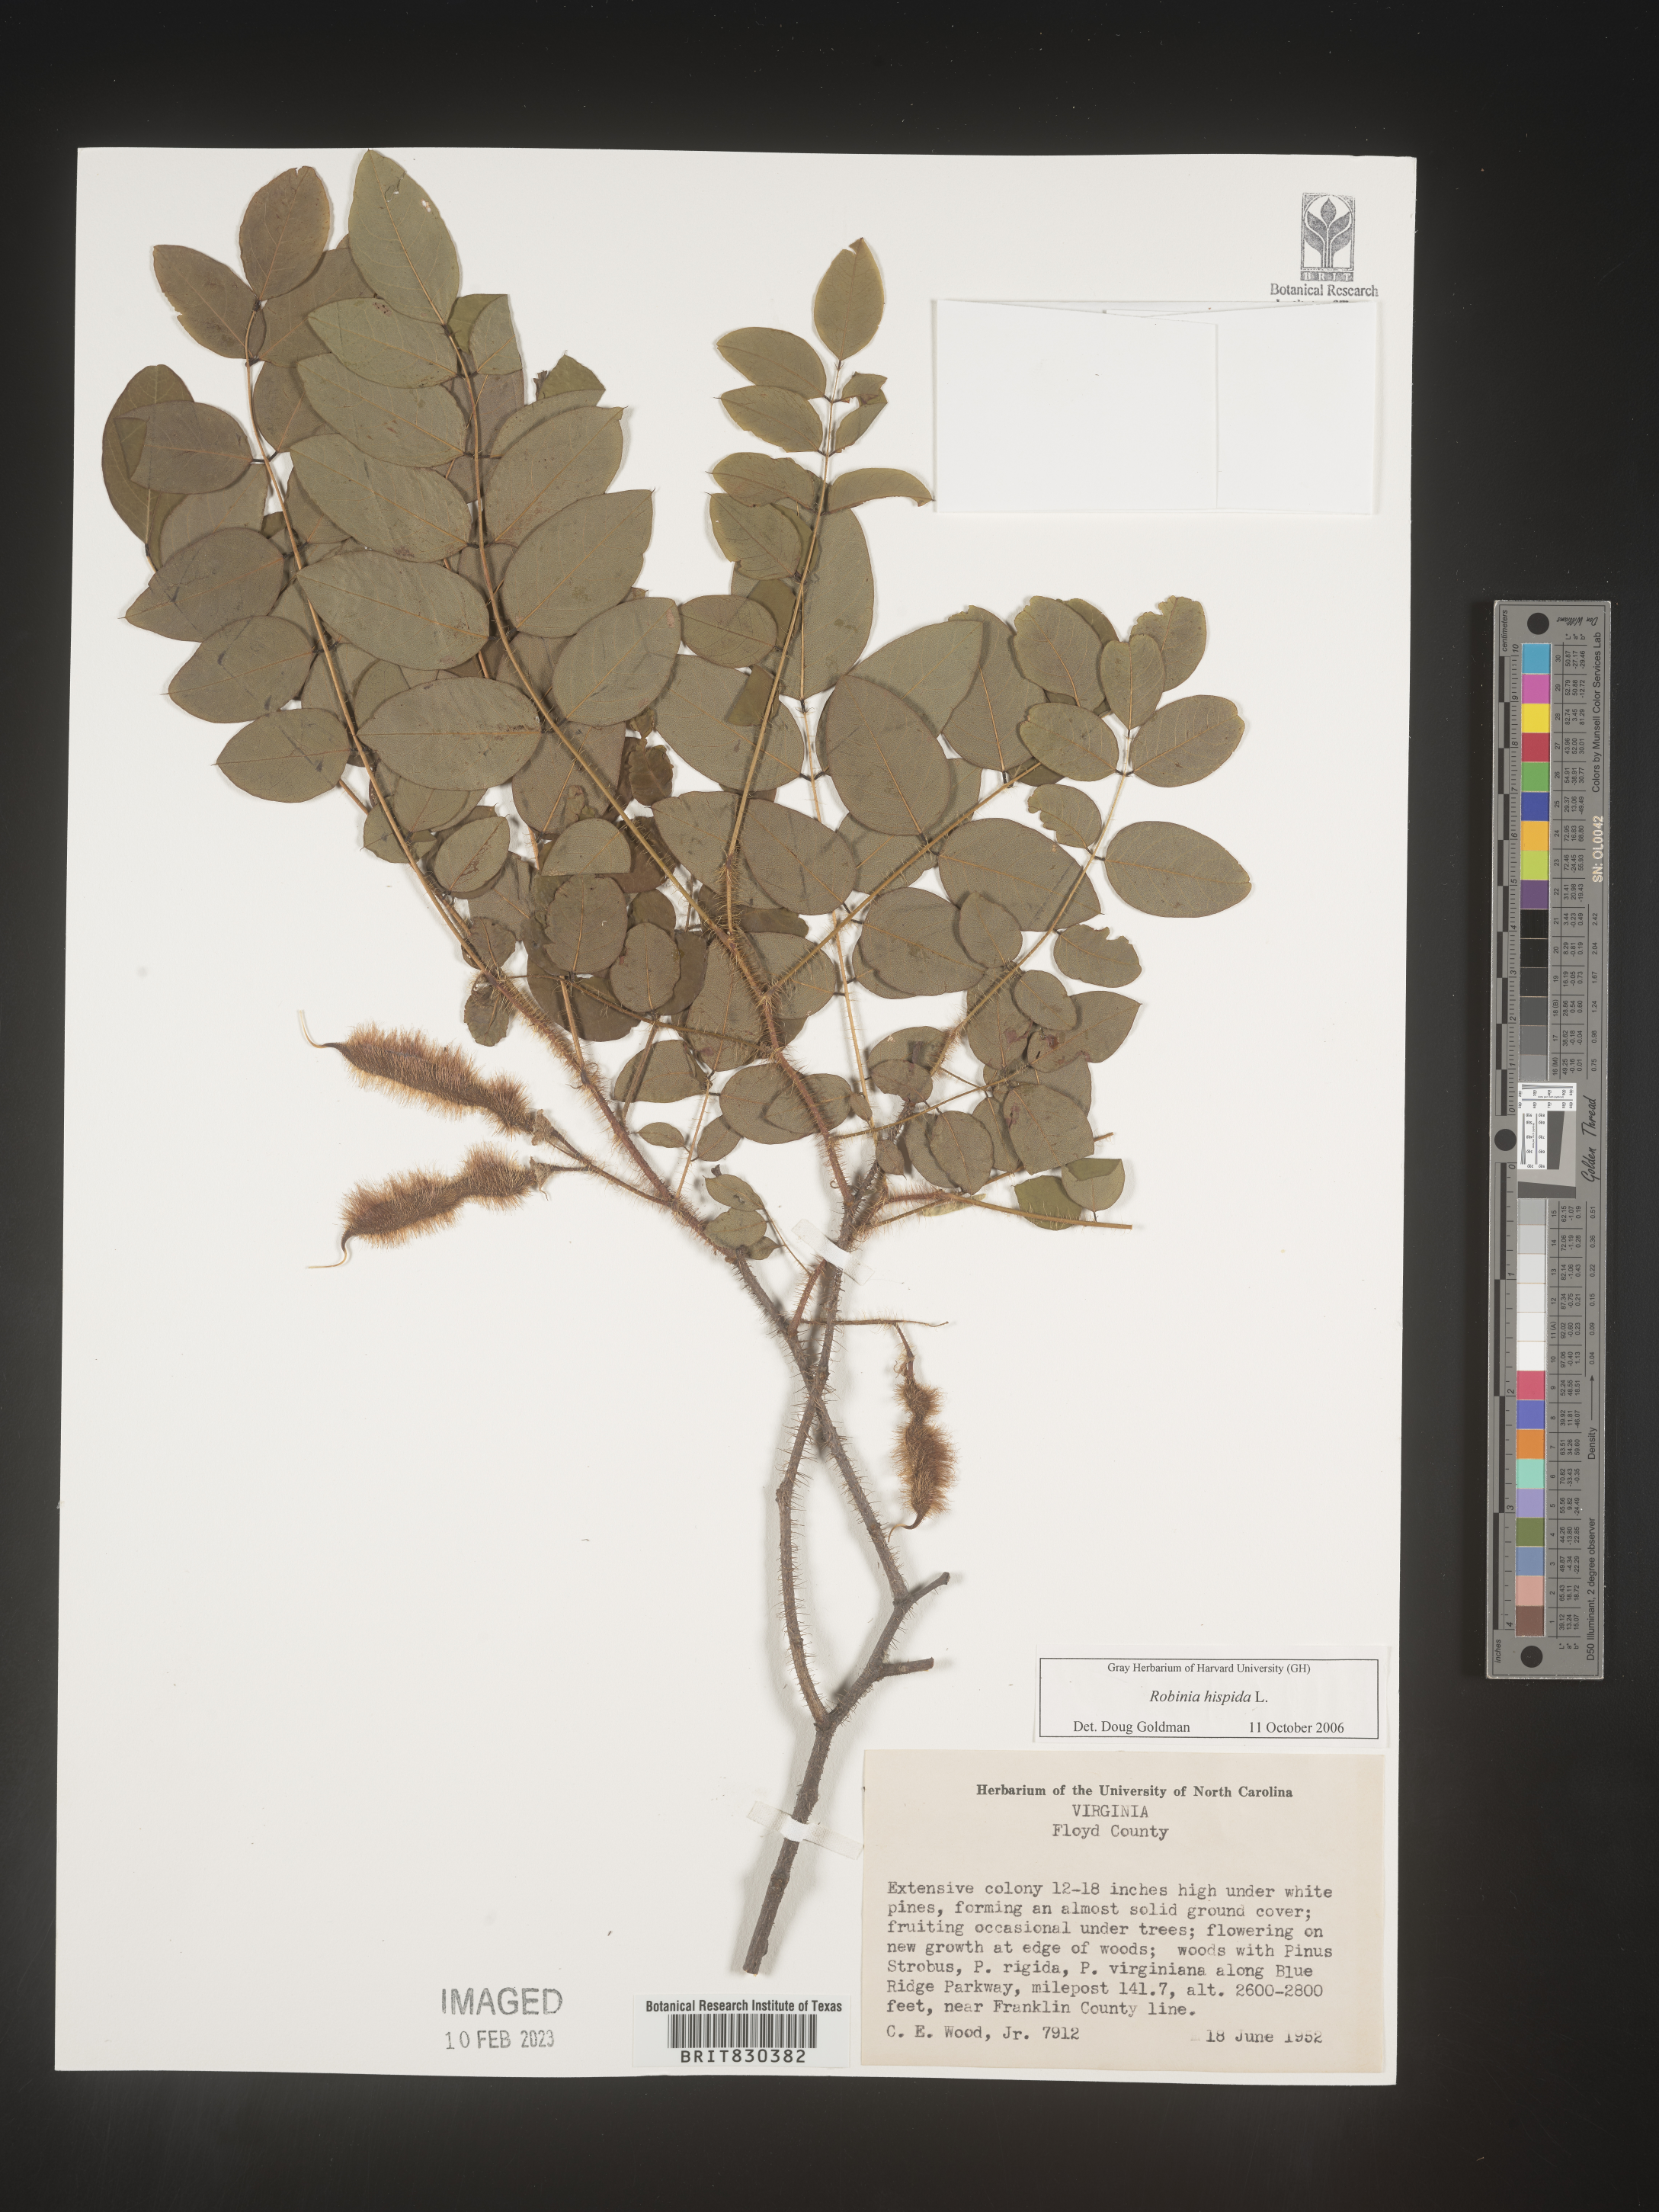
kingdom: Plantae
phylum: Tracheophyta
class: Magnoliopsida
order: Fabales
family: Fabaceae
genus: Robinia
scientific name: Robinia hispida
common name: Bristly locust
